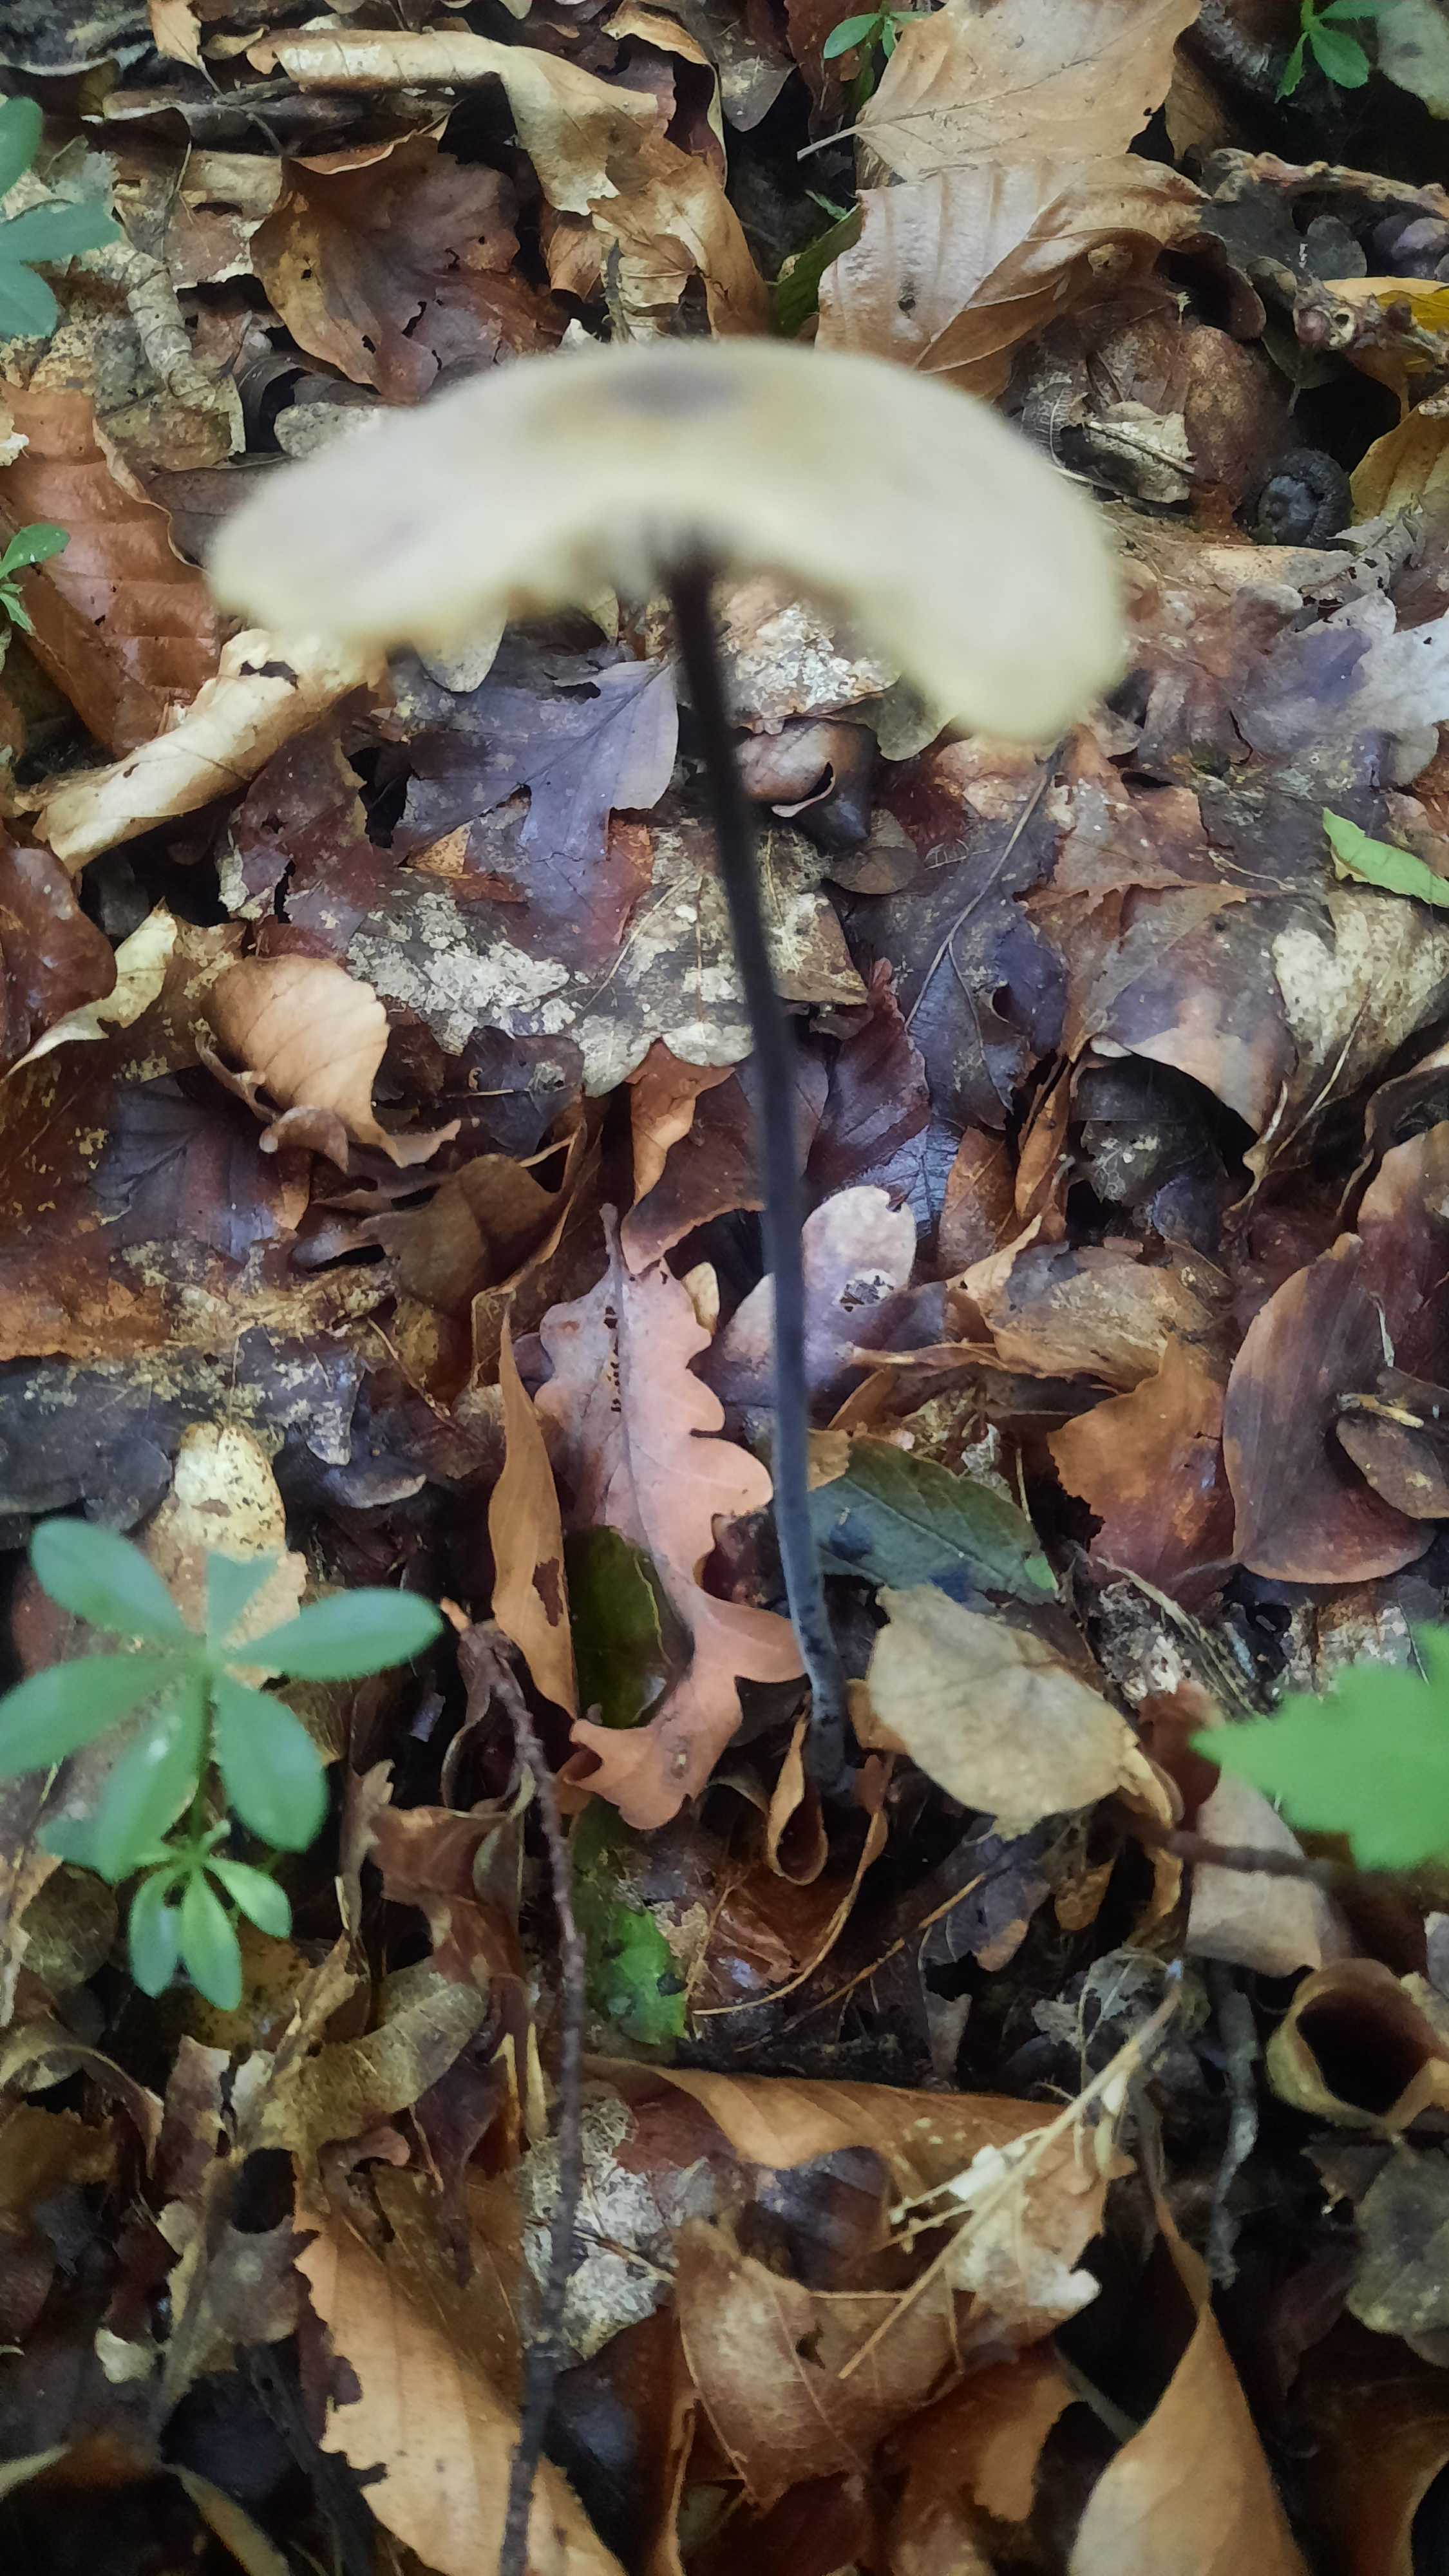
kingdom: Fungi
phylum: Basidiomycota
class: Agaricomycetes
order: Agaricales
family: Omphalotaceae
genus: Mycetinis
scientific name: Mycetinis alliaceus
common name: stor løghat
